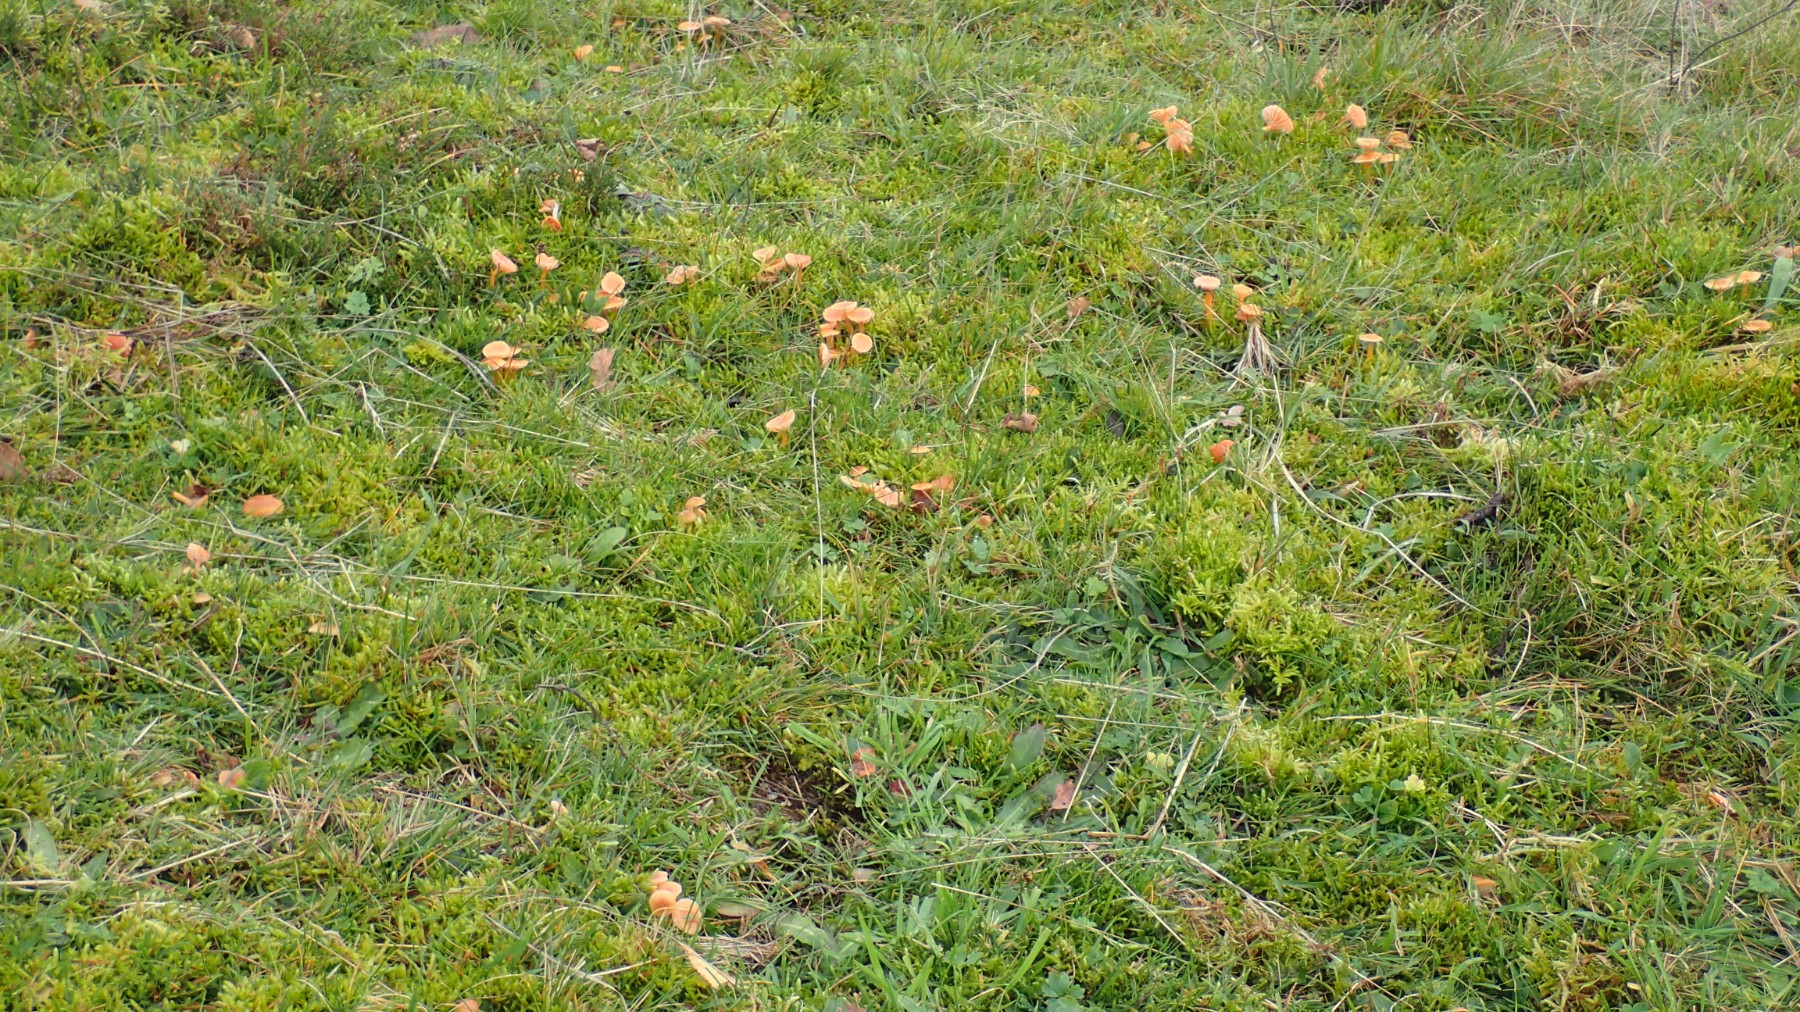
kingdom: Fungi
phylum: Basidiomycota
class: Agaricomycetes
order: Agaricales
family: Hygrophoraceae
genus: Gliophorus
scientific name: Gliophorus laetus
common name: brusk-vokshat
